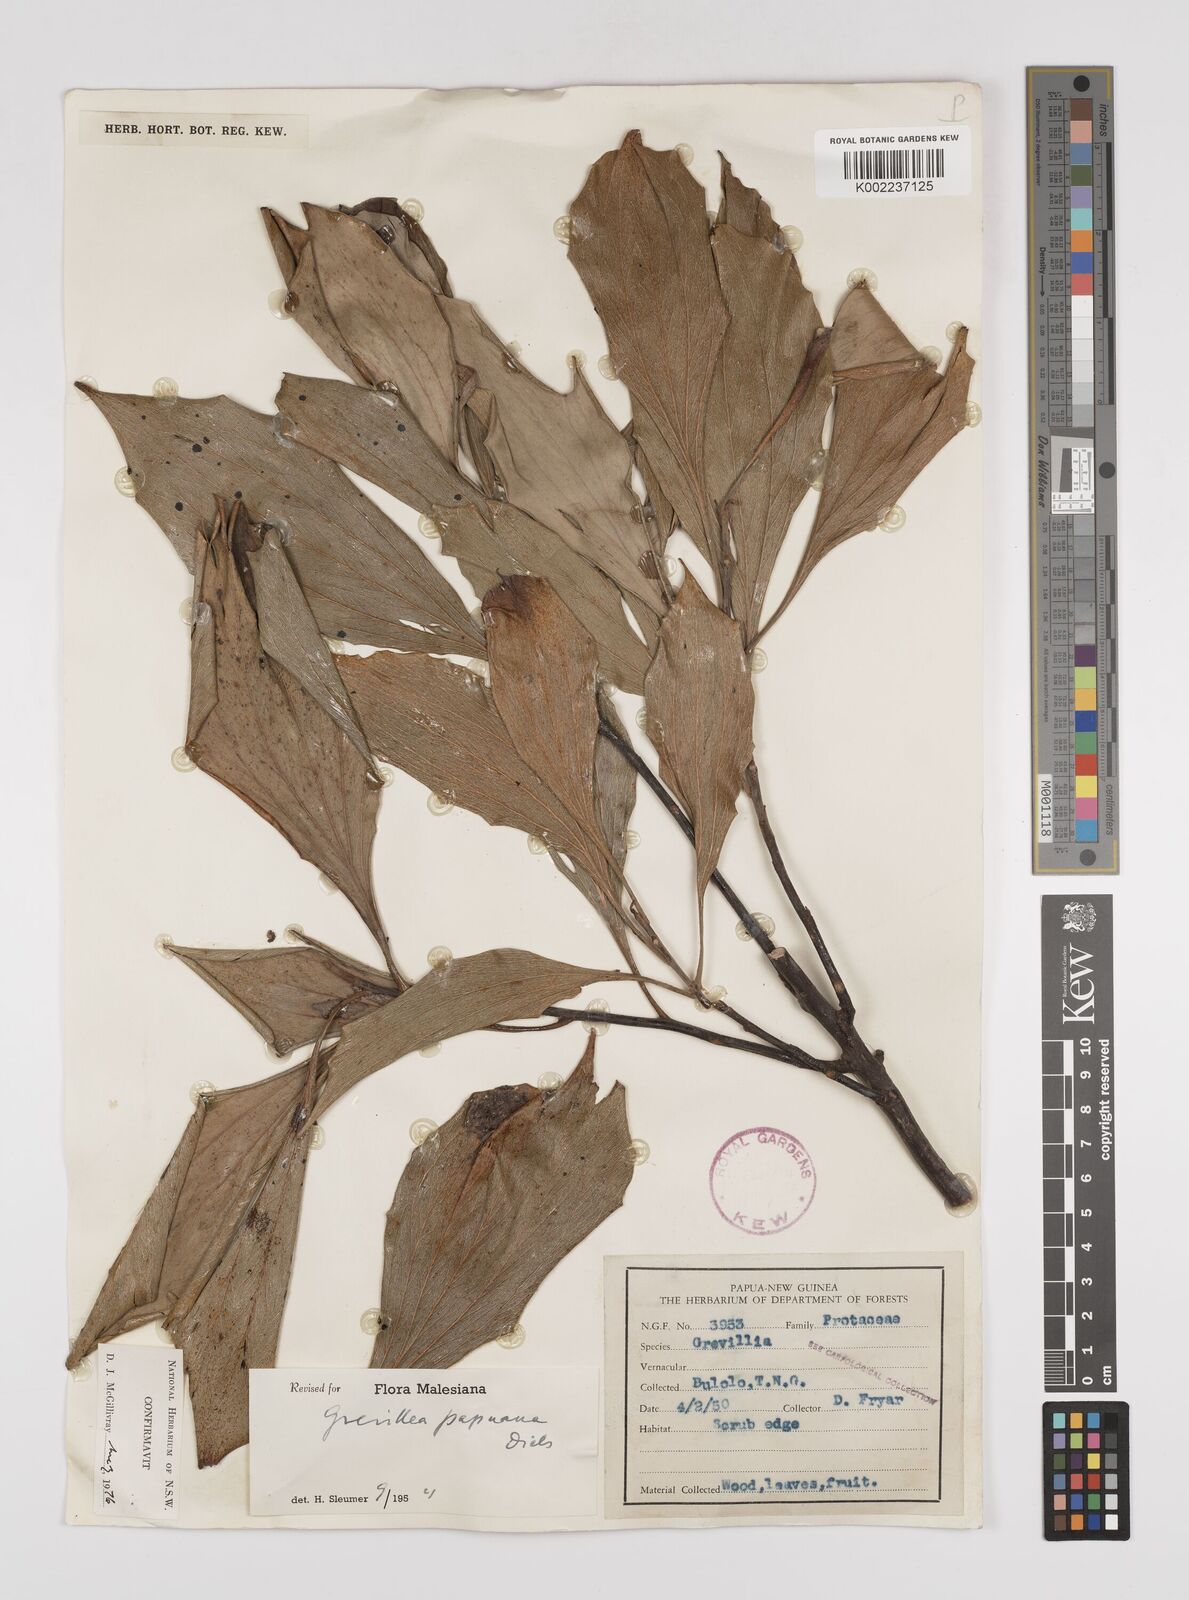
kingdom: Plantae
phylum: Tracheophyta
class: Magnoliopsida
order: Proteales
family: Proteaceae
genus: Grevillea
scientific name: Grevillea papuana
